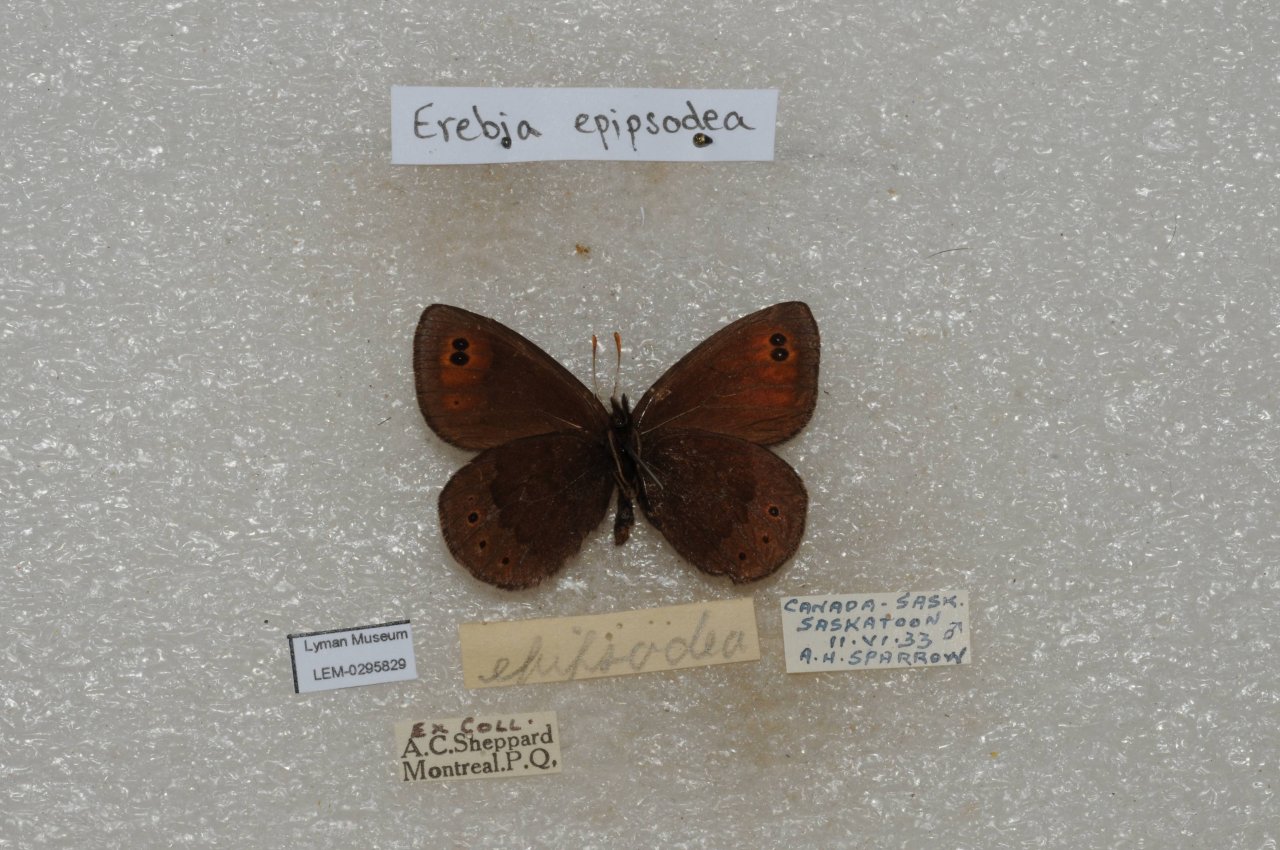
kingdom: Animalia
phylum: Arthropoda
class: Insecta
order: Lepidoptera
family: Nymphalidae
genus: Erebia
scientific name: Erebia epipsodea
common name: Common Alpine
